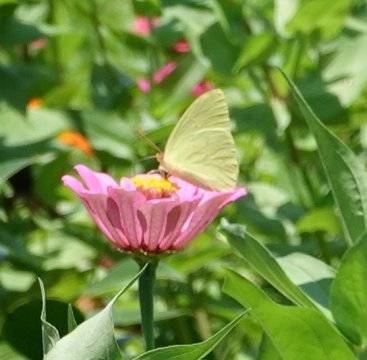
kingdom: Animalia
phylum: Arthropoda
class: Insecta
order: Lepidoptera
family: Pieridae
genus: Phoebis
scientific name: Phoebis sennae
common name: Cloudless Sulphur
